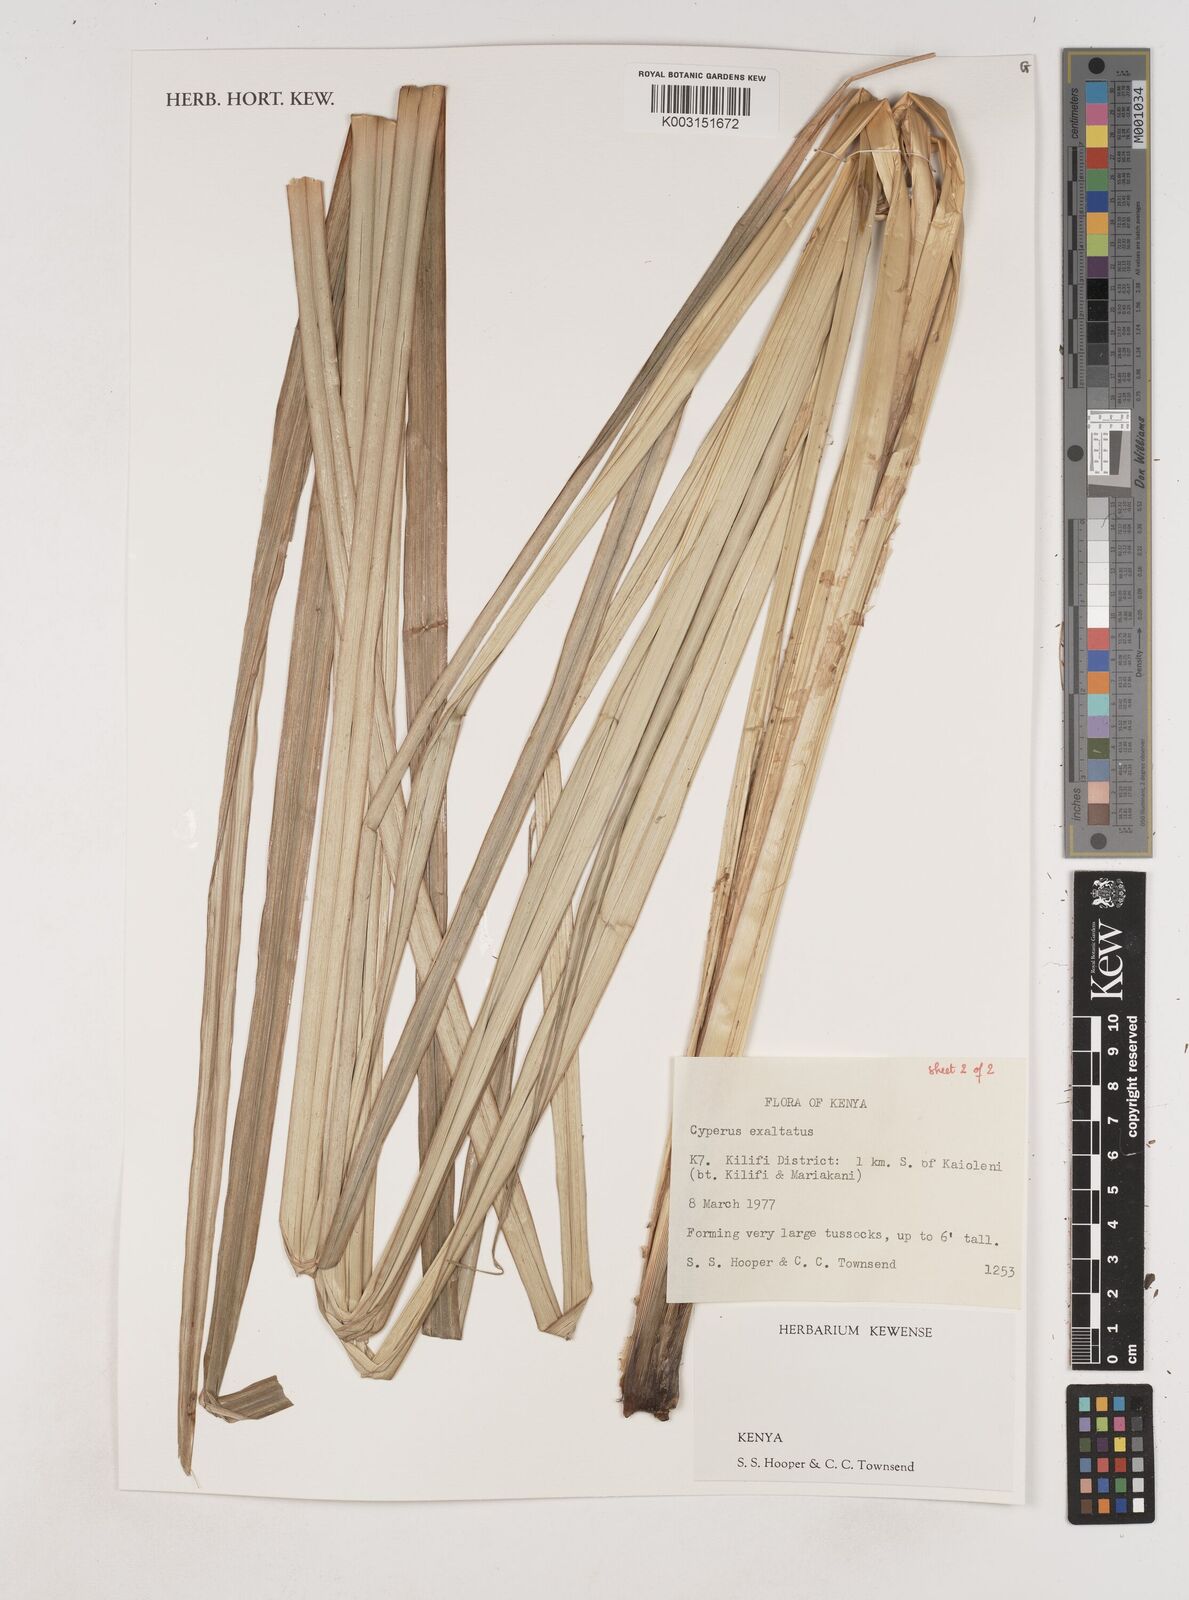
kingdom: Plantae
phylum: Tracheophyta
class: Liliopsida
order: Poales
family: Cyperaceae
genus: Cyperus
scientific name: Cyperus exaltatus
